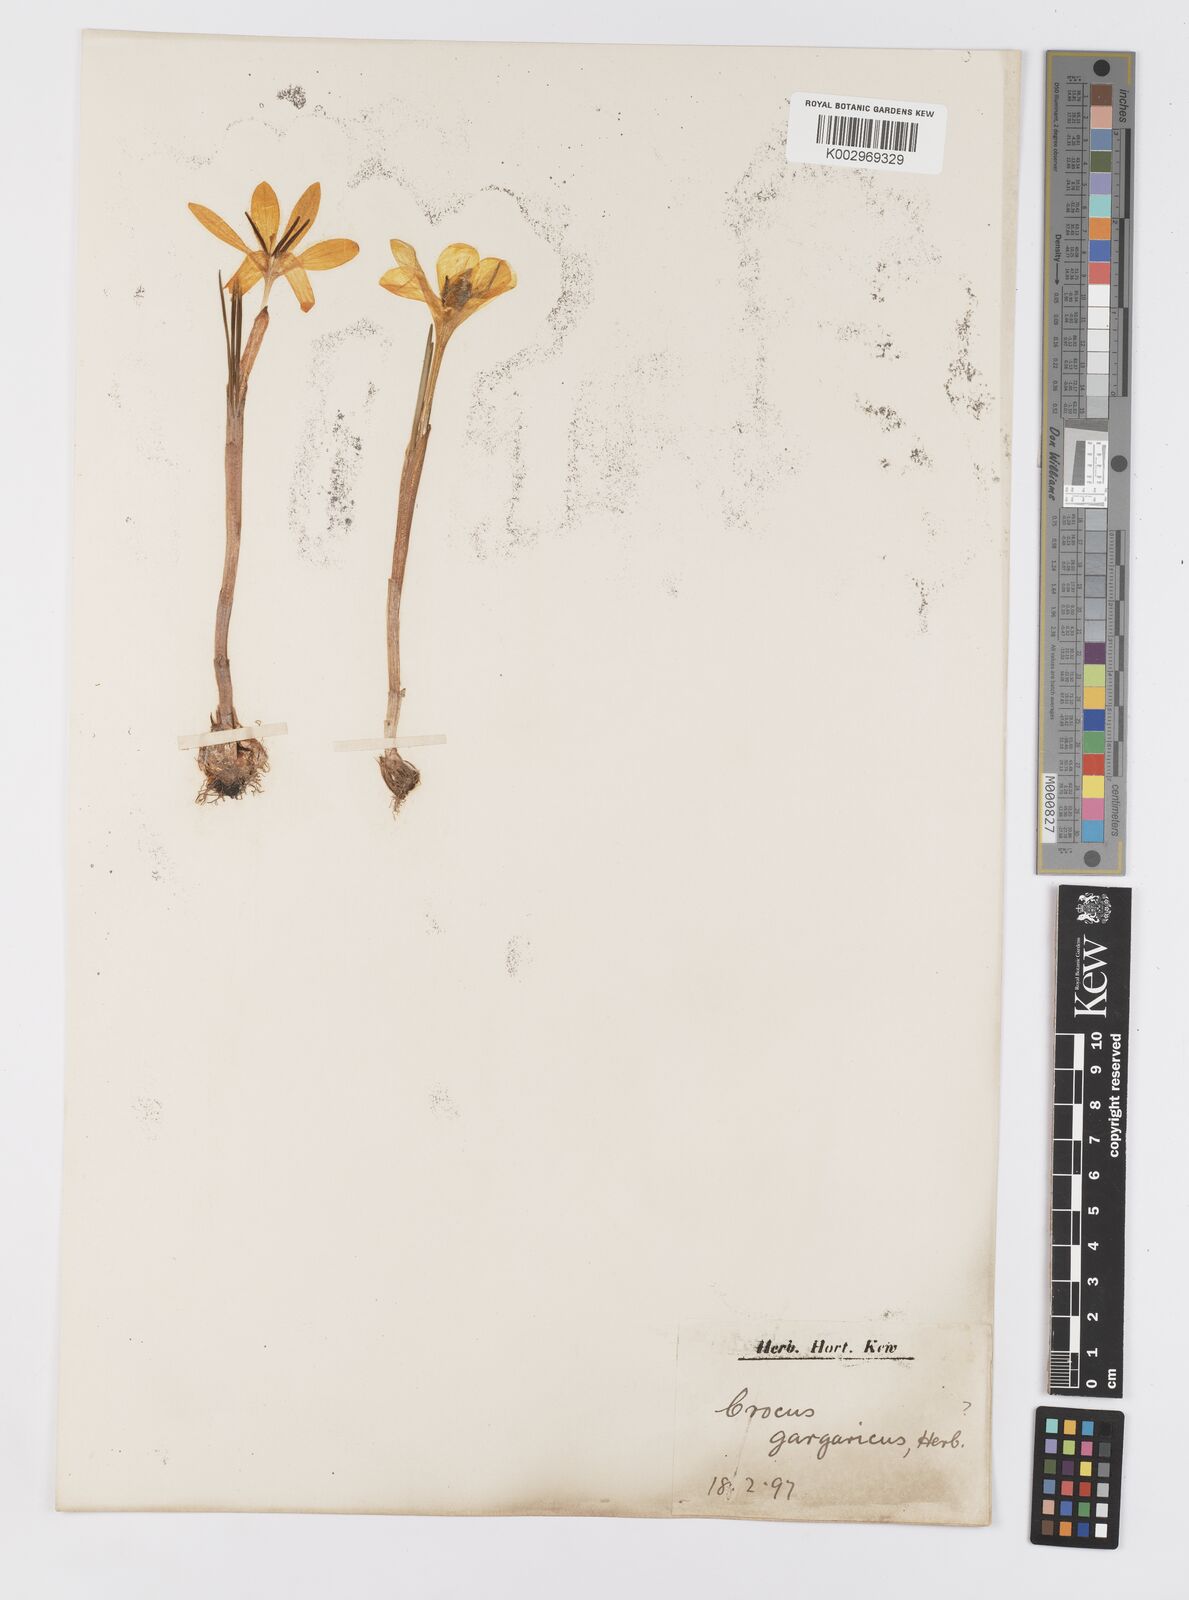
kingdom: Plantae
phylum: Tracheophyta
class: Liliopsida
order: Asparagales
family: Iridaceae
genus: Crocus
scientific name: Crocus gargaricus
